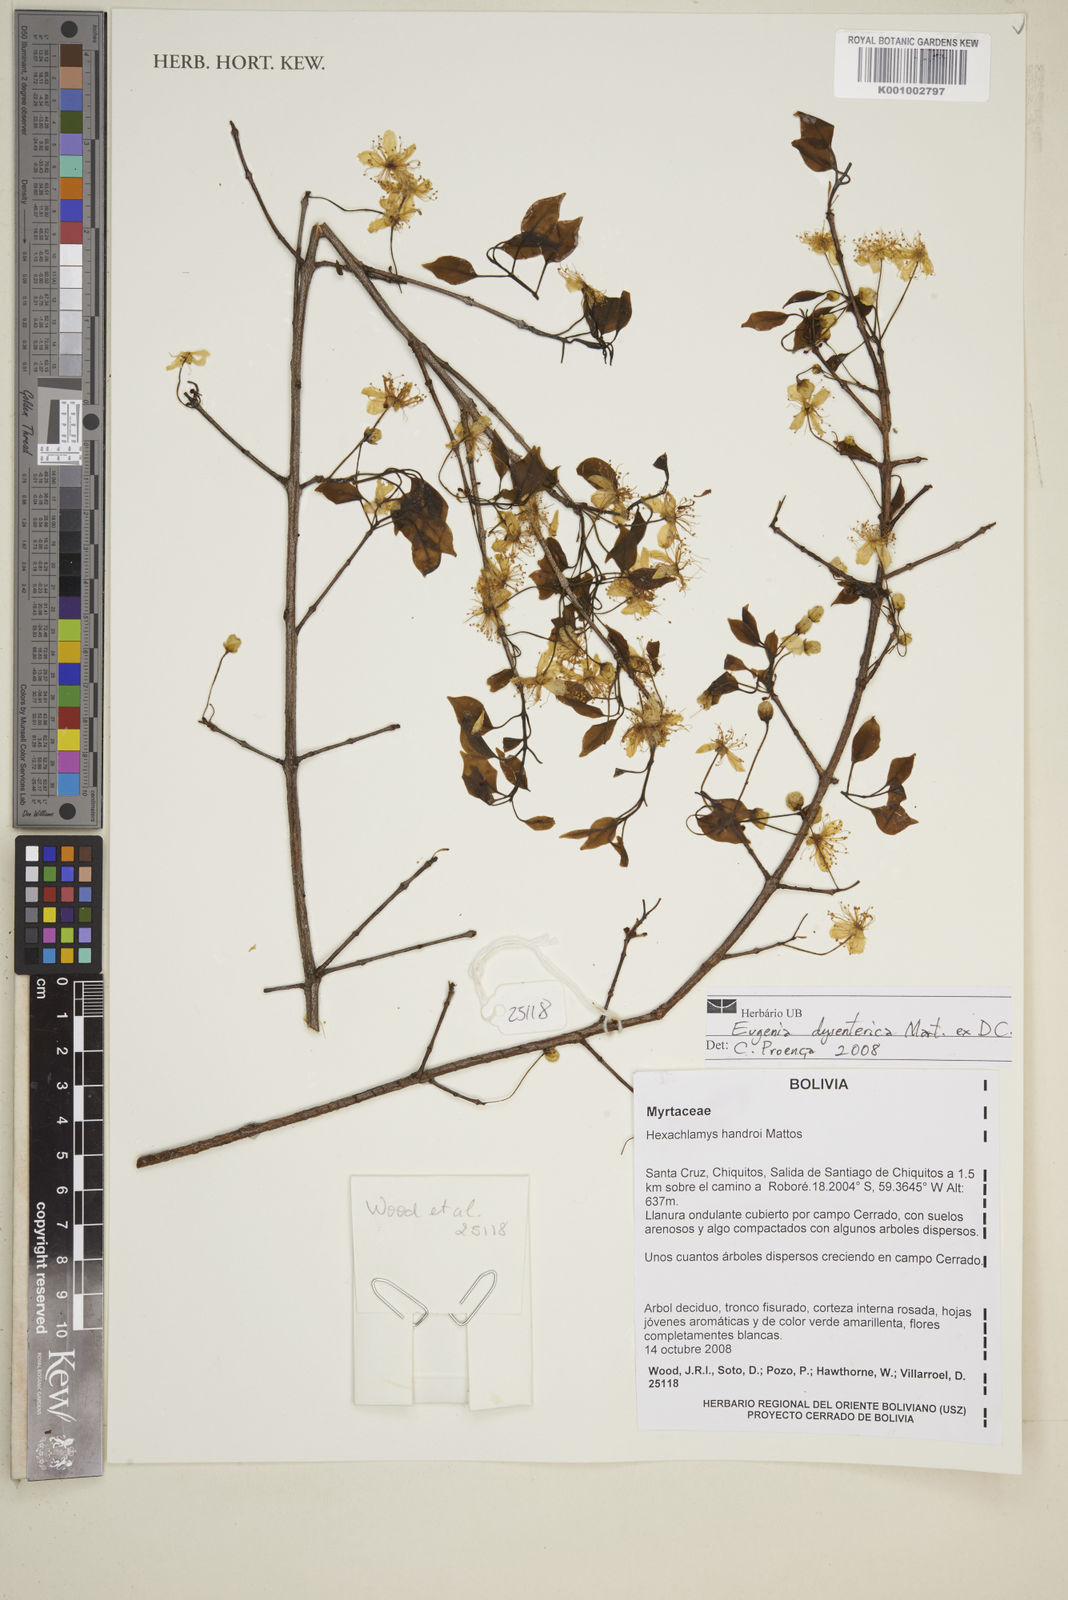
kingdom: Plantae
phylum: Tracheophyta
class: Magnoliopsida
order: Myrtales
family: Myrtaceae
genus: Eugenia
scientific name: Eugenia dysenterica
